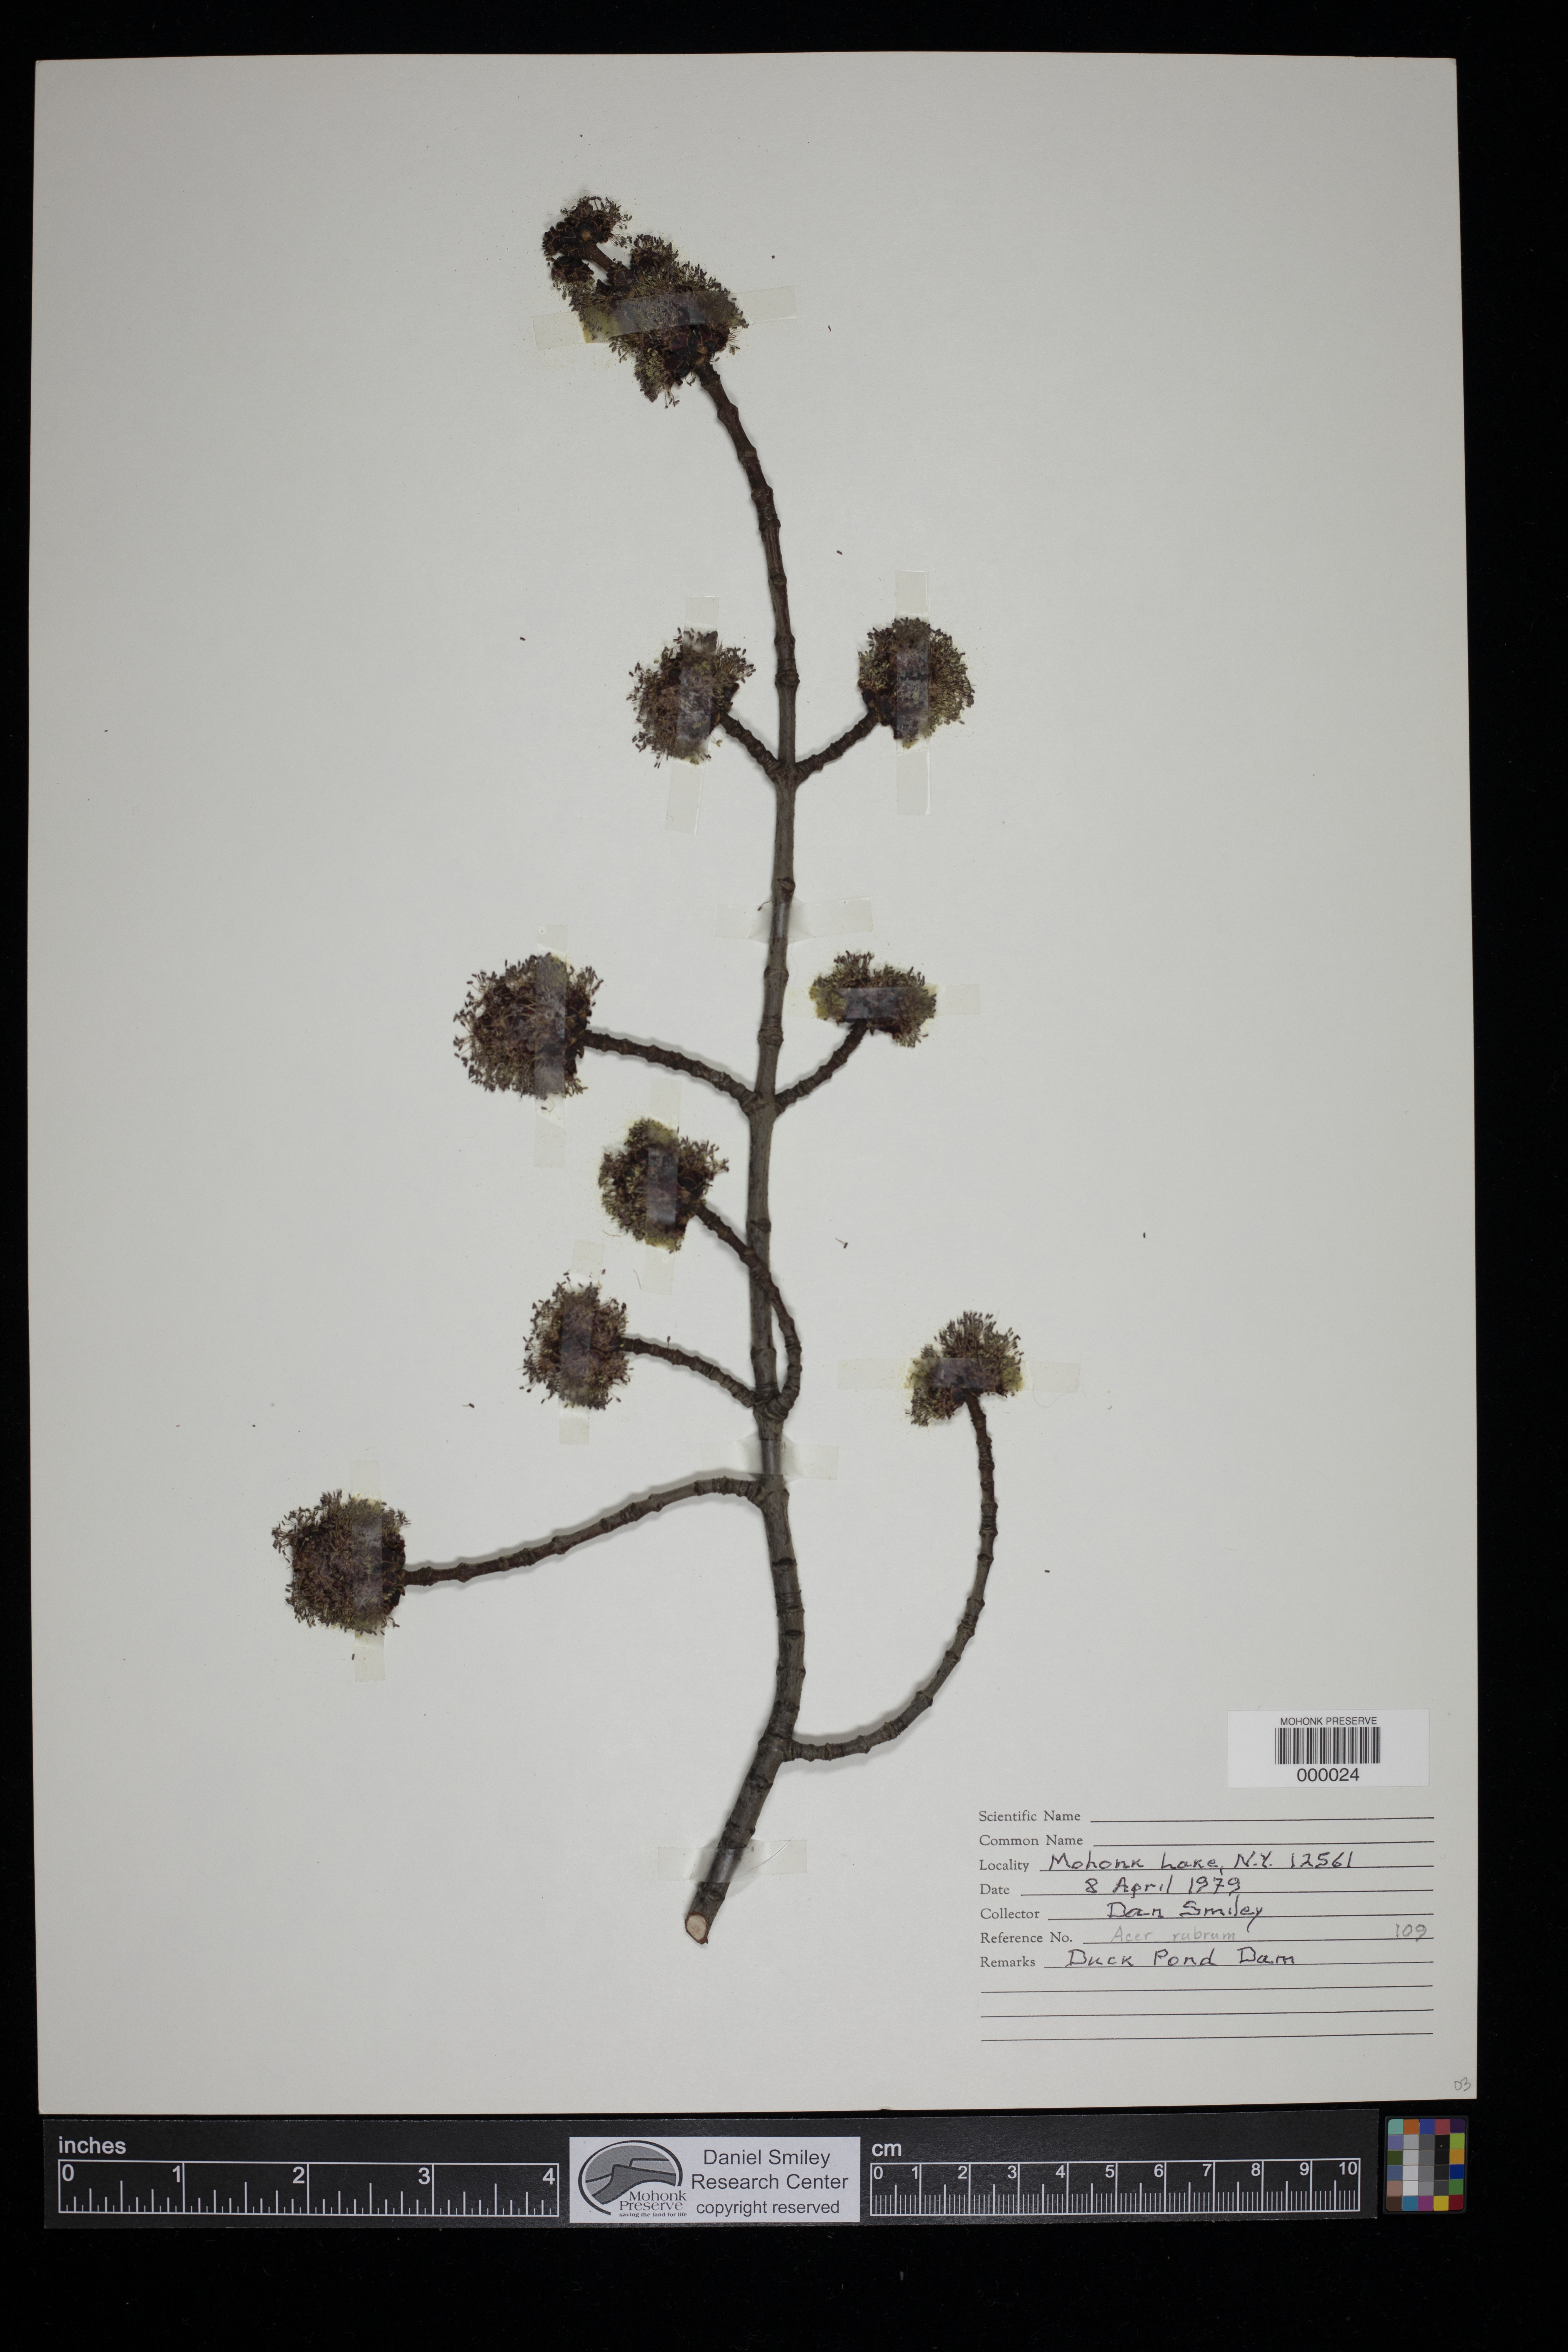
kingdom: Plantae
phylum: Tracheophyta
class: Magnoliopsida
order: Sapindales
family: Sapindaceae
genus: Acer
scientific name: Acer rubrum
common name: Red maple
